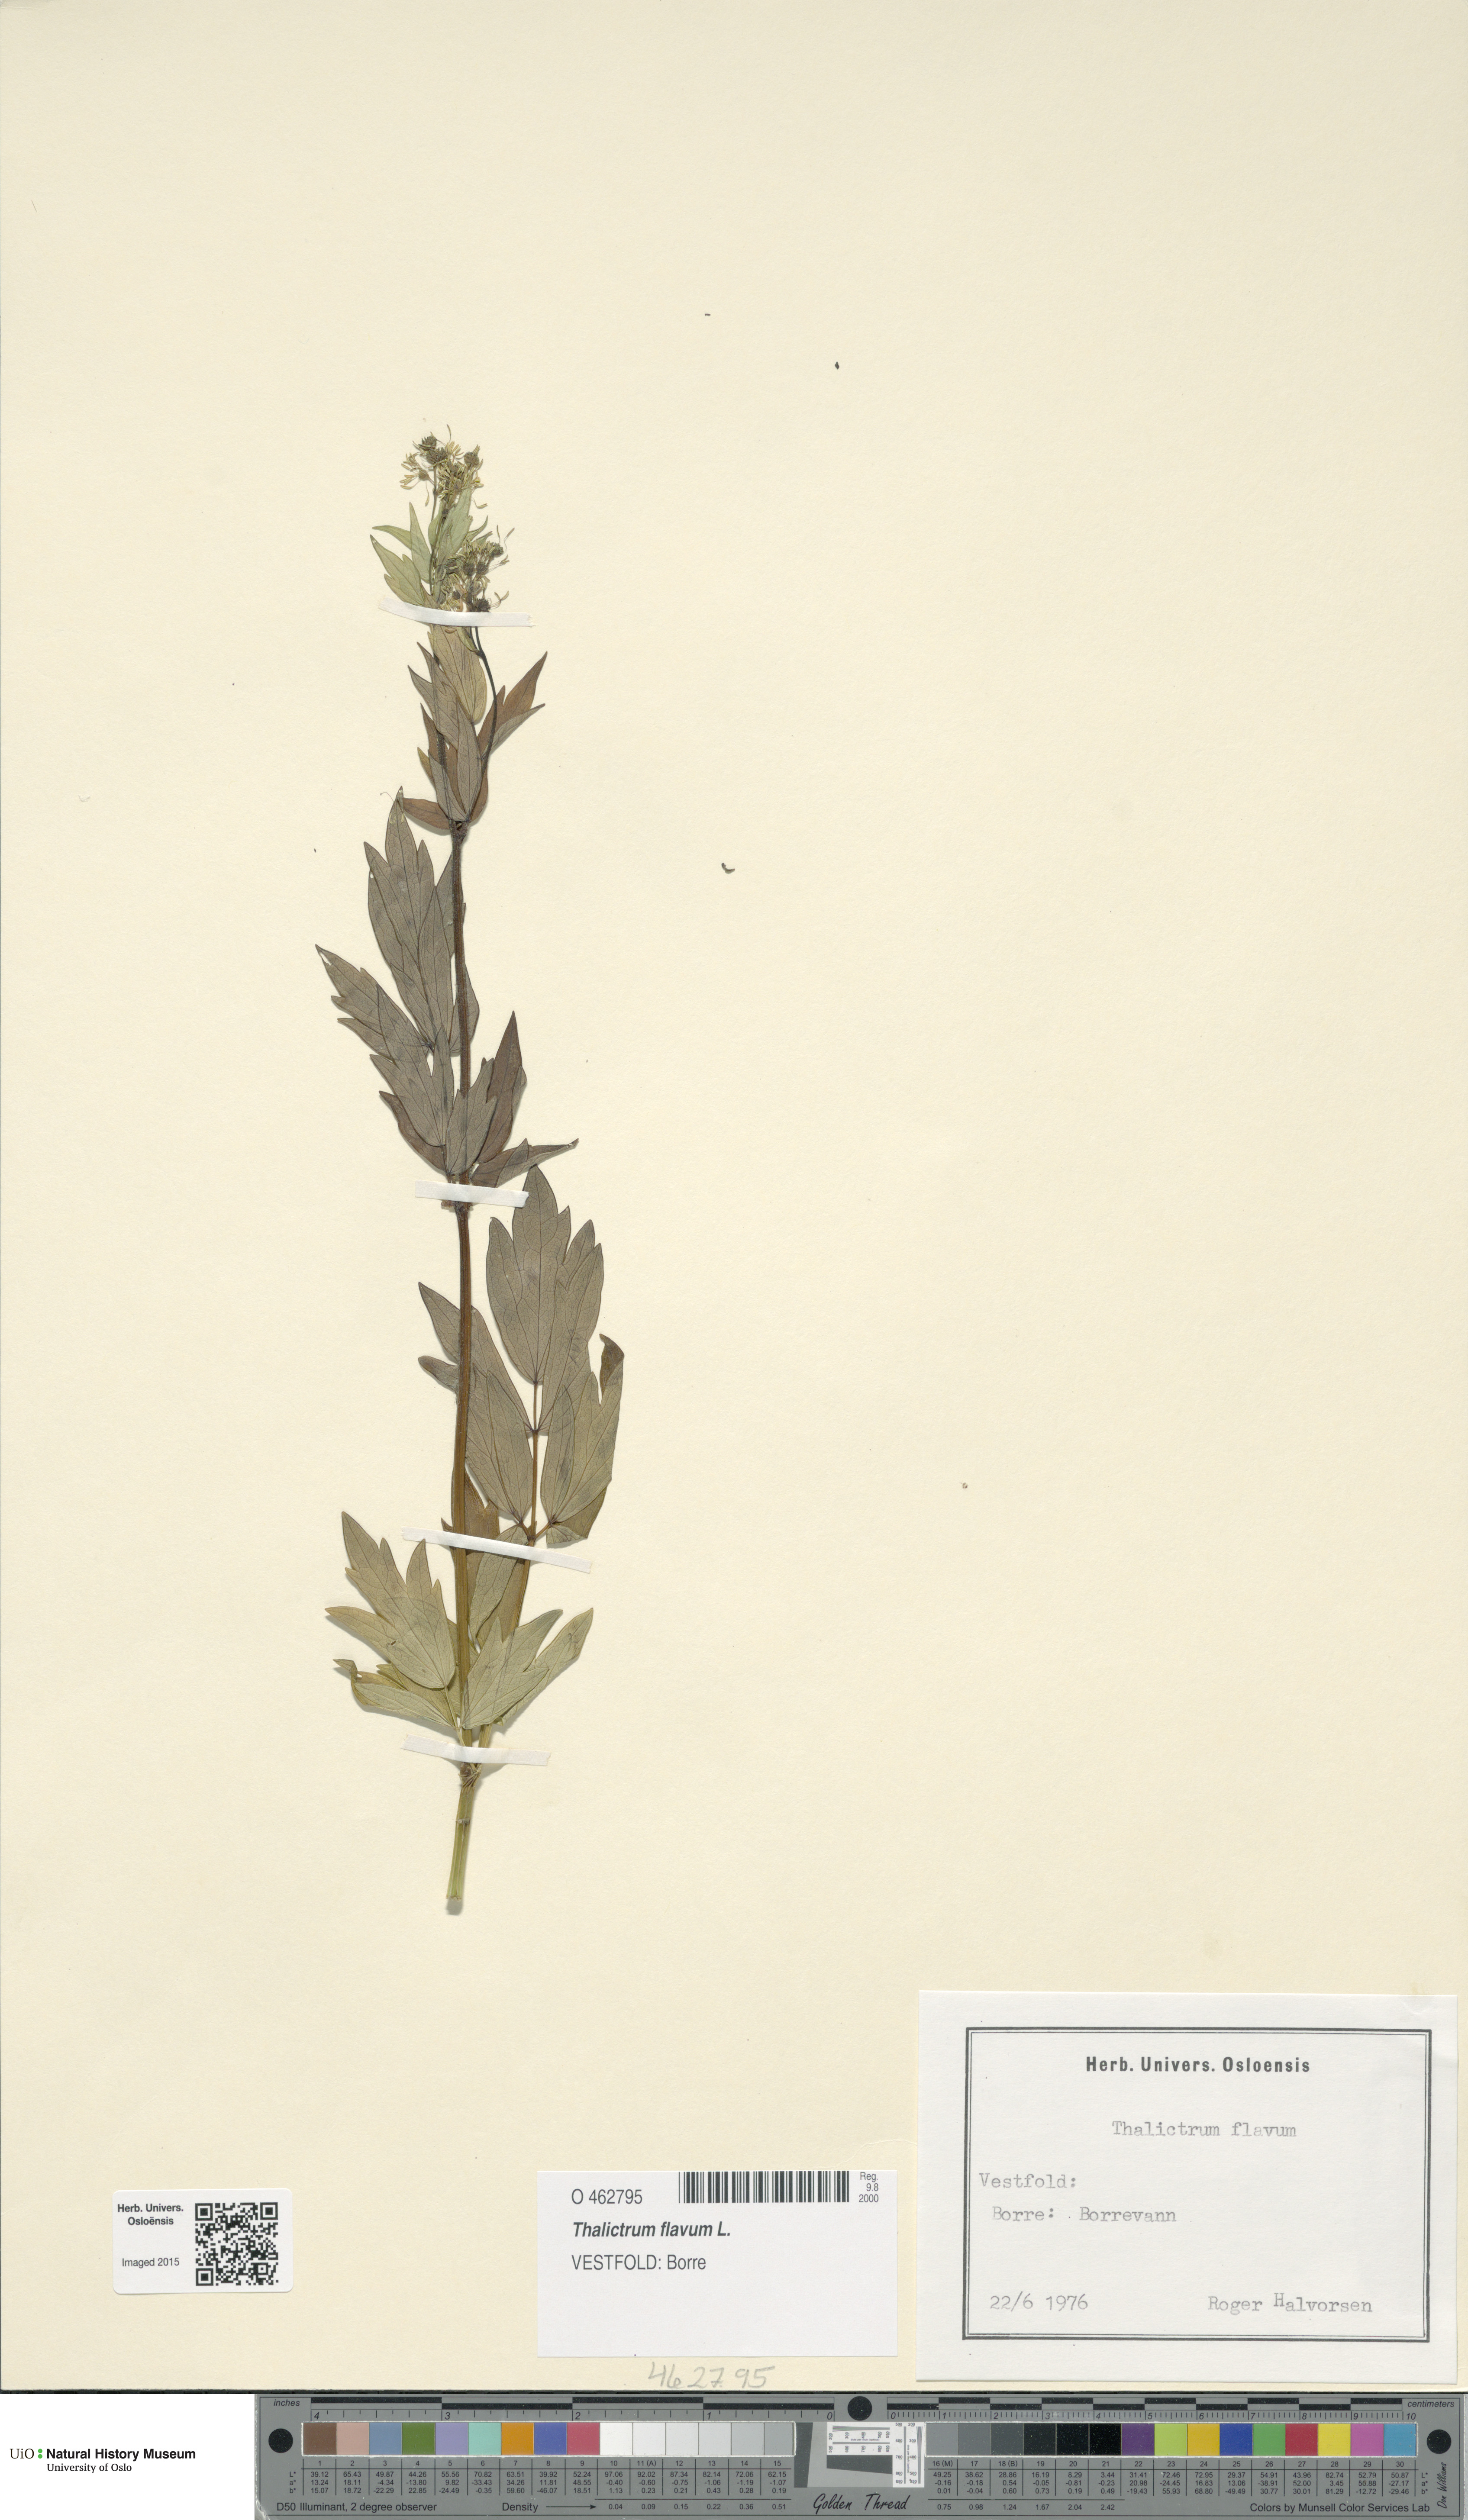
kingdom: Plantae
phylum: Tracheophyta
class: Magnoliopsida
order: Ranunculales
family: Ranunculaceae
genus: Thalictrum
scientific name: Thalictrum flavum
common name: Common meadow-rue
